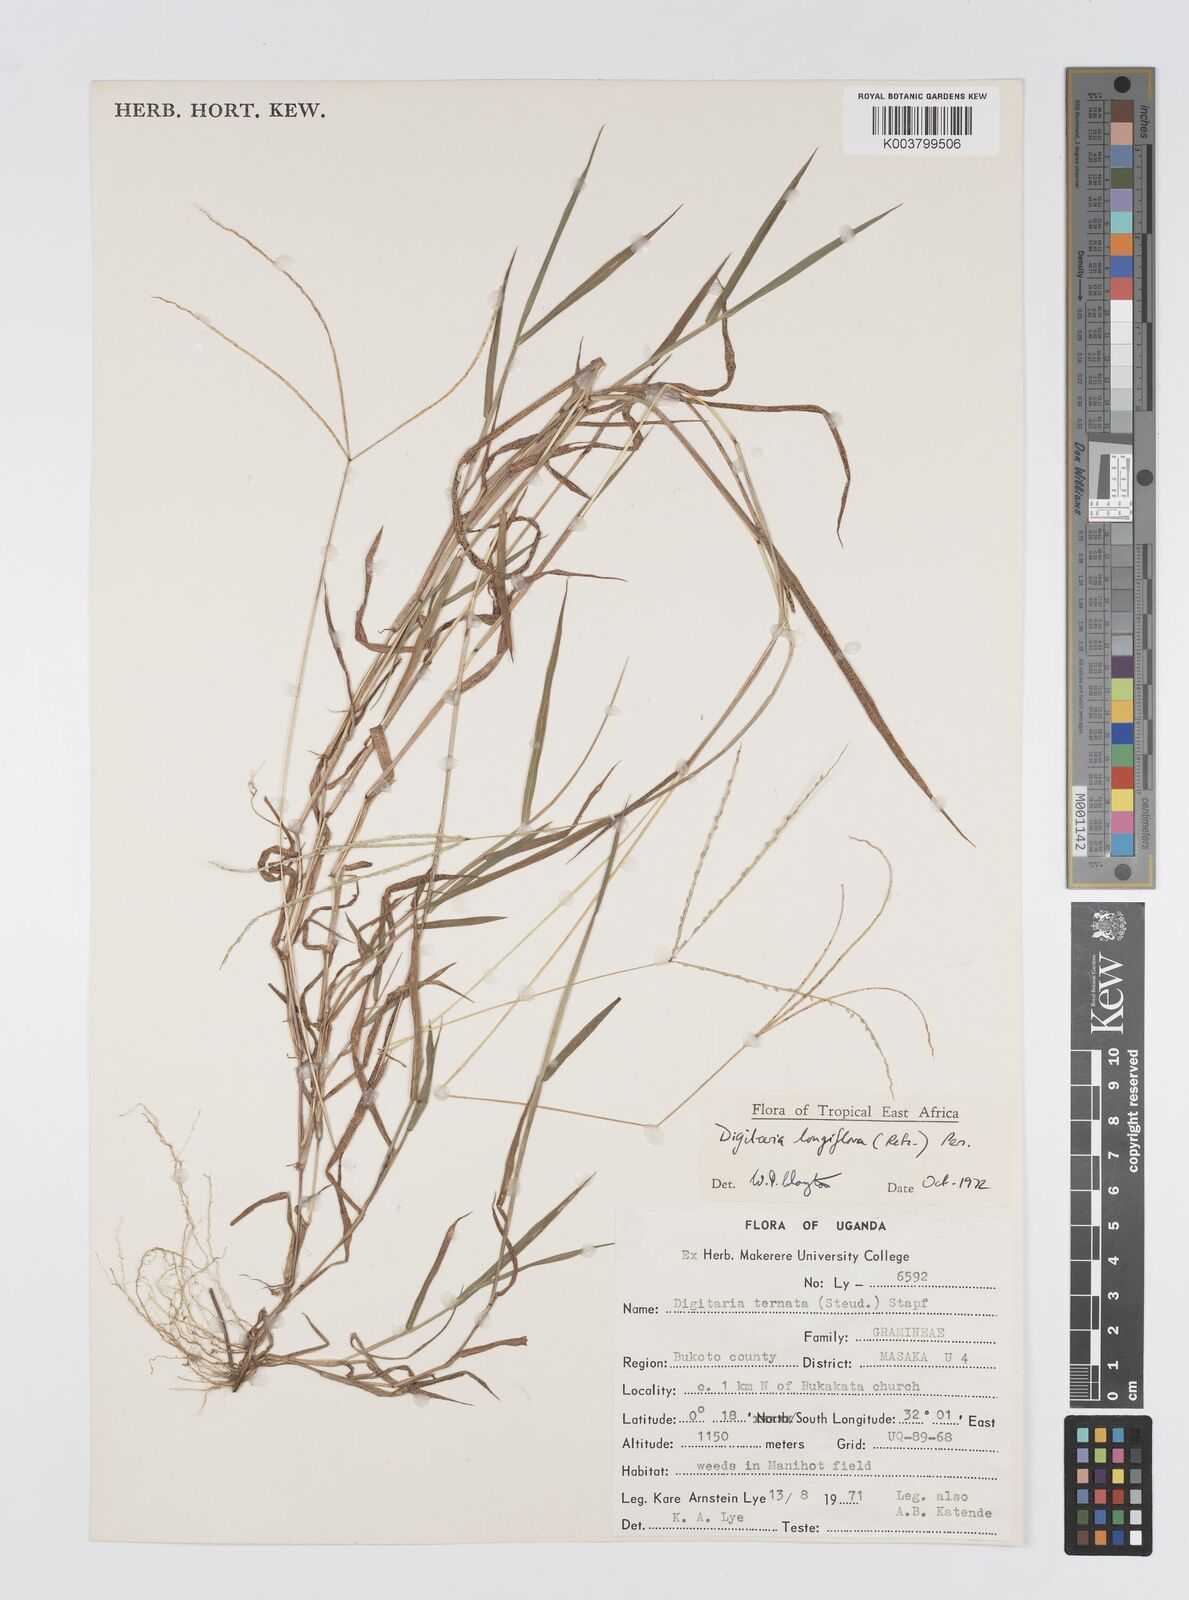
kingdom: Plantae
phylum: Tracheophyta
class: Liliopsida
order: Poales
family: Poaceae
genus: Digitaria
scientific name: Digitaria longiflora
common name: Wire crabgrass
